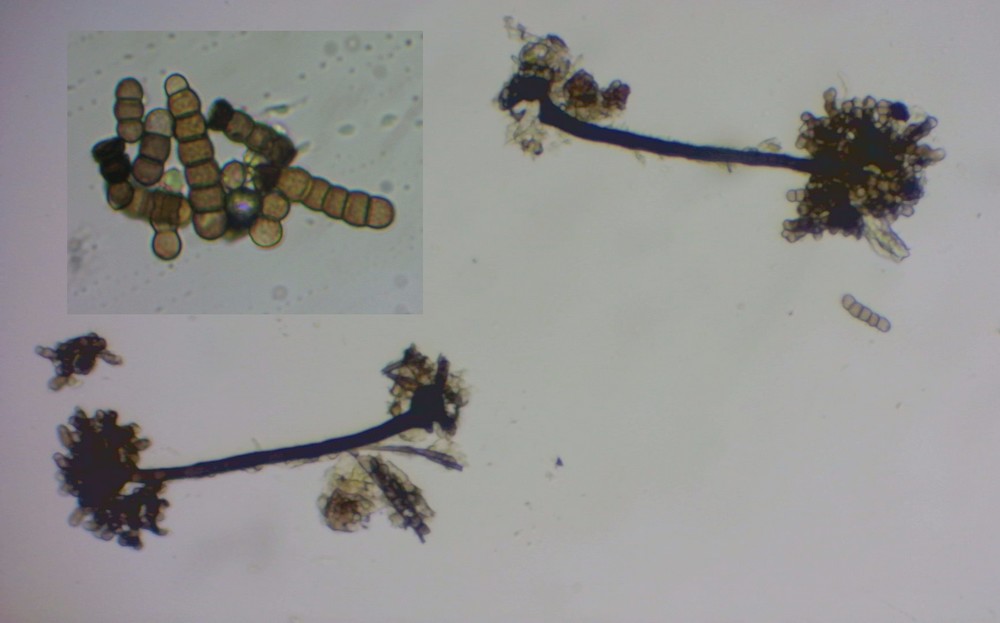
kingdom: Fungi
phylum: Ascomycota
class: Dothideomycetes
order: Pleosporales
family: Torulaceae
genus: Dendryphion
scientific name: Dendryphion comosum
